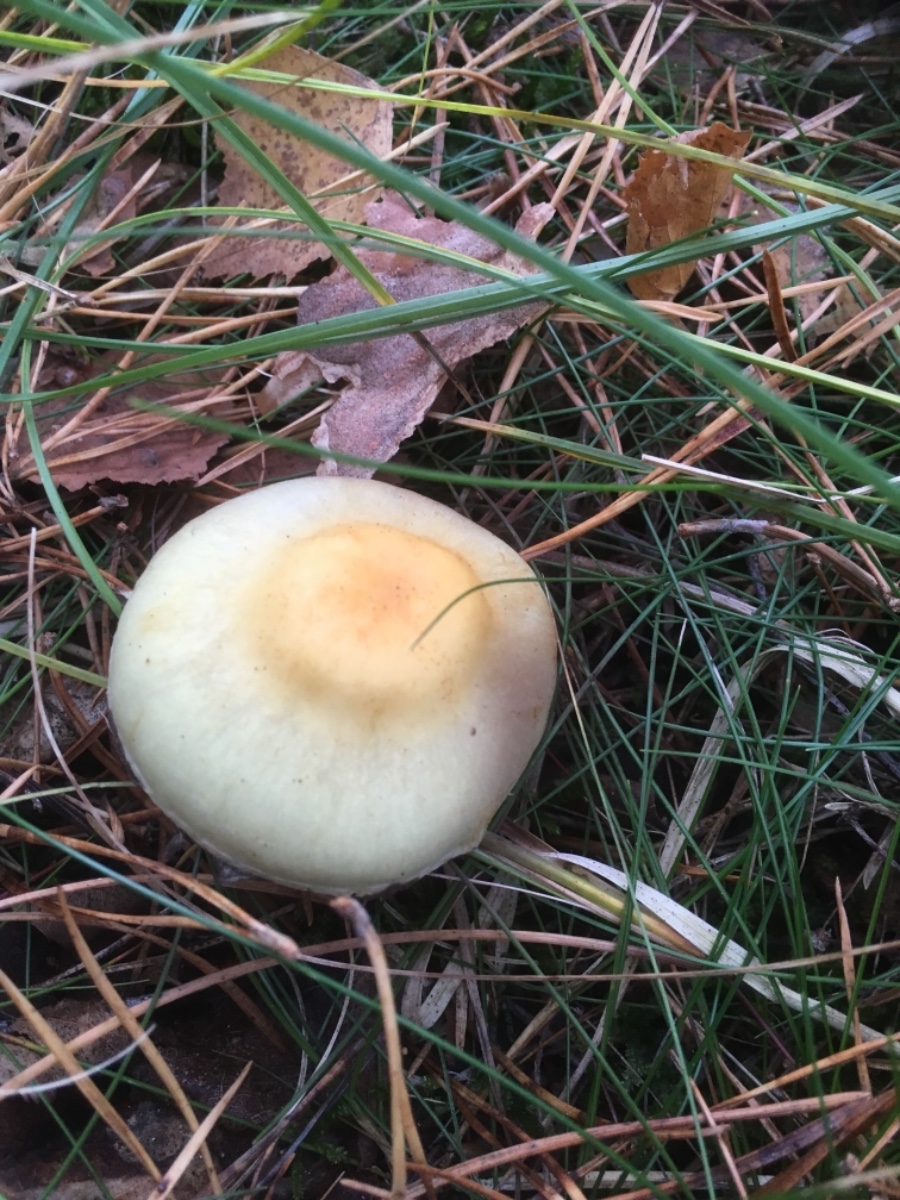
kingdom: Fungi
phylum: Basidiomycota
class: Agaricomycetes
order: Agaricales
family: Strophariaceae
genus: Hypholoma
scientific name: Hypholoma fasciculare
